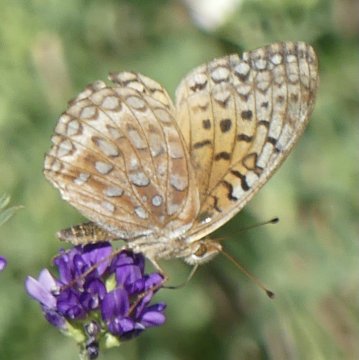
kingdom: Animalia
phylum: Arthropoda
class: Insecta
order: Lepidoptera
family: Nymphalidae
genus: Speyeria
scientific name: Speyeria aphrodite
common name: Aphrodite Fritillary
